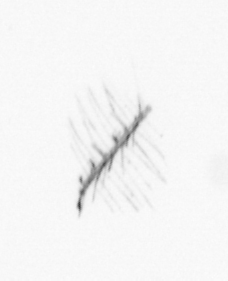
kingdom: Chromista
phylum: Ochrophyta
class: Bacillariophyceae
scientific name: Bacillariophyceae
